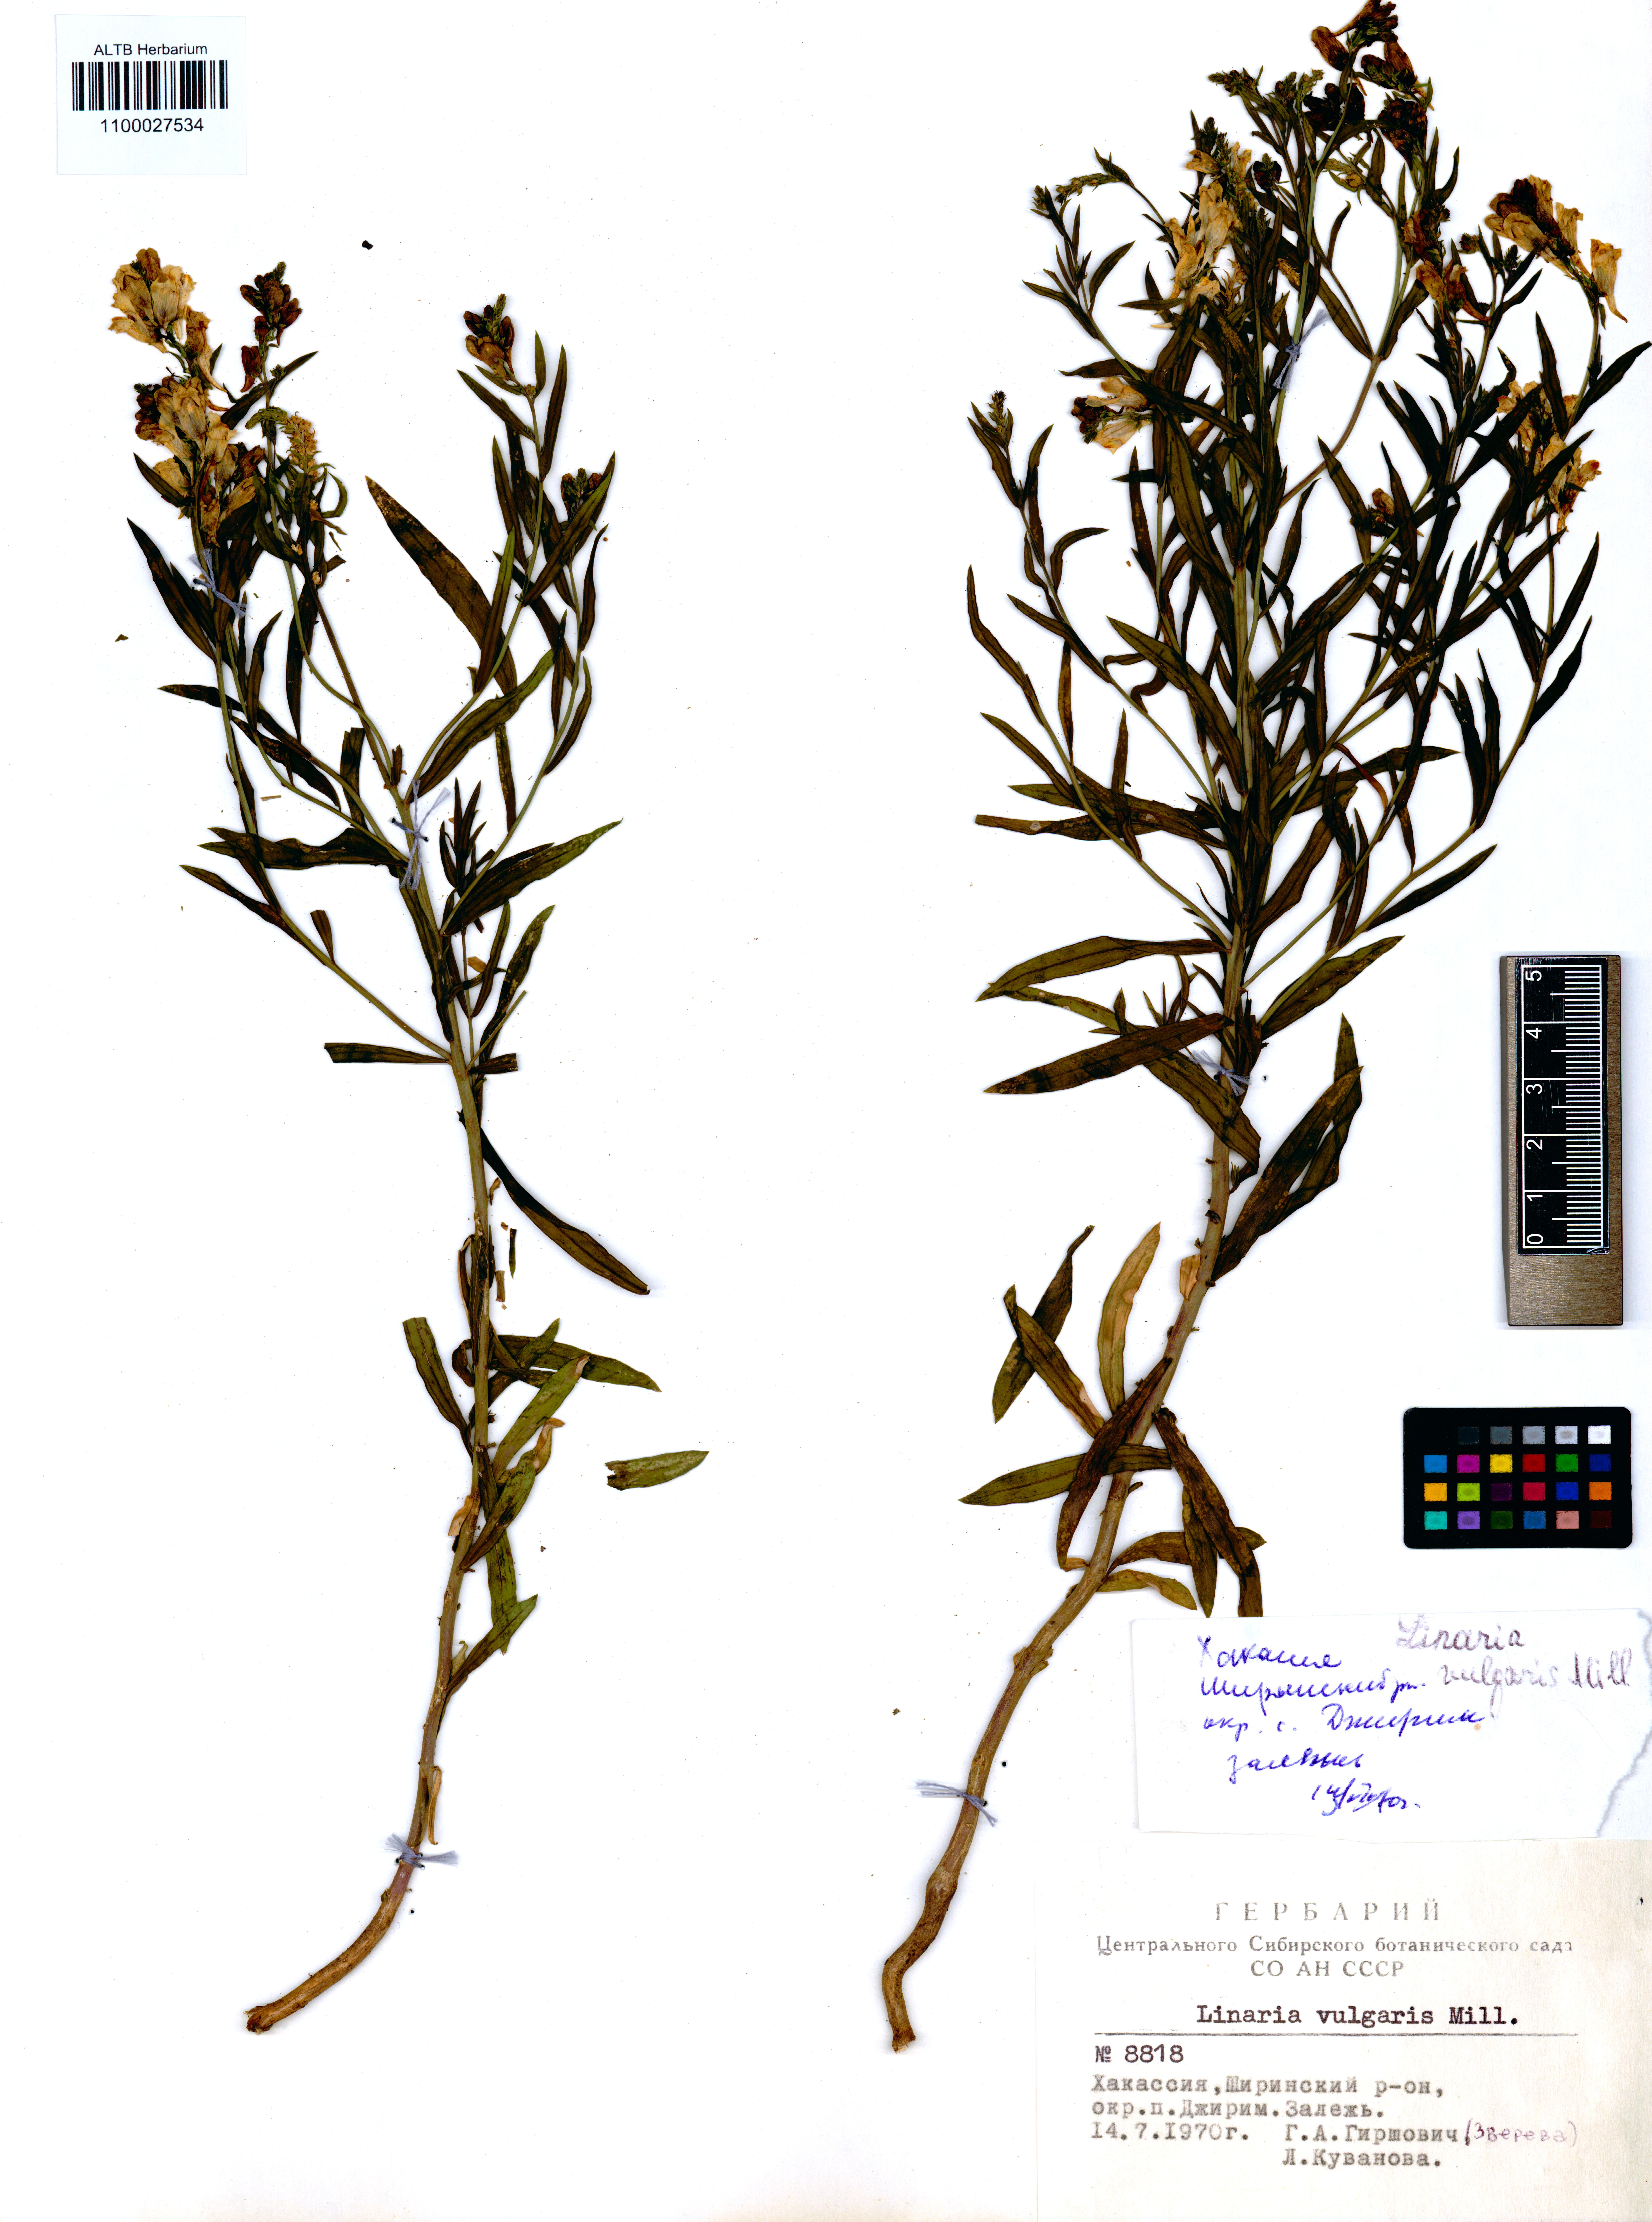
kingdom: Plantae
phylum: Tracheophyta
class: Magnoliopsida
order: Lamiales
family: Plantaginaceae
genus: Linaria
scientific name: Linaria vulgaris
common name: Butter and eggs
